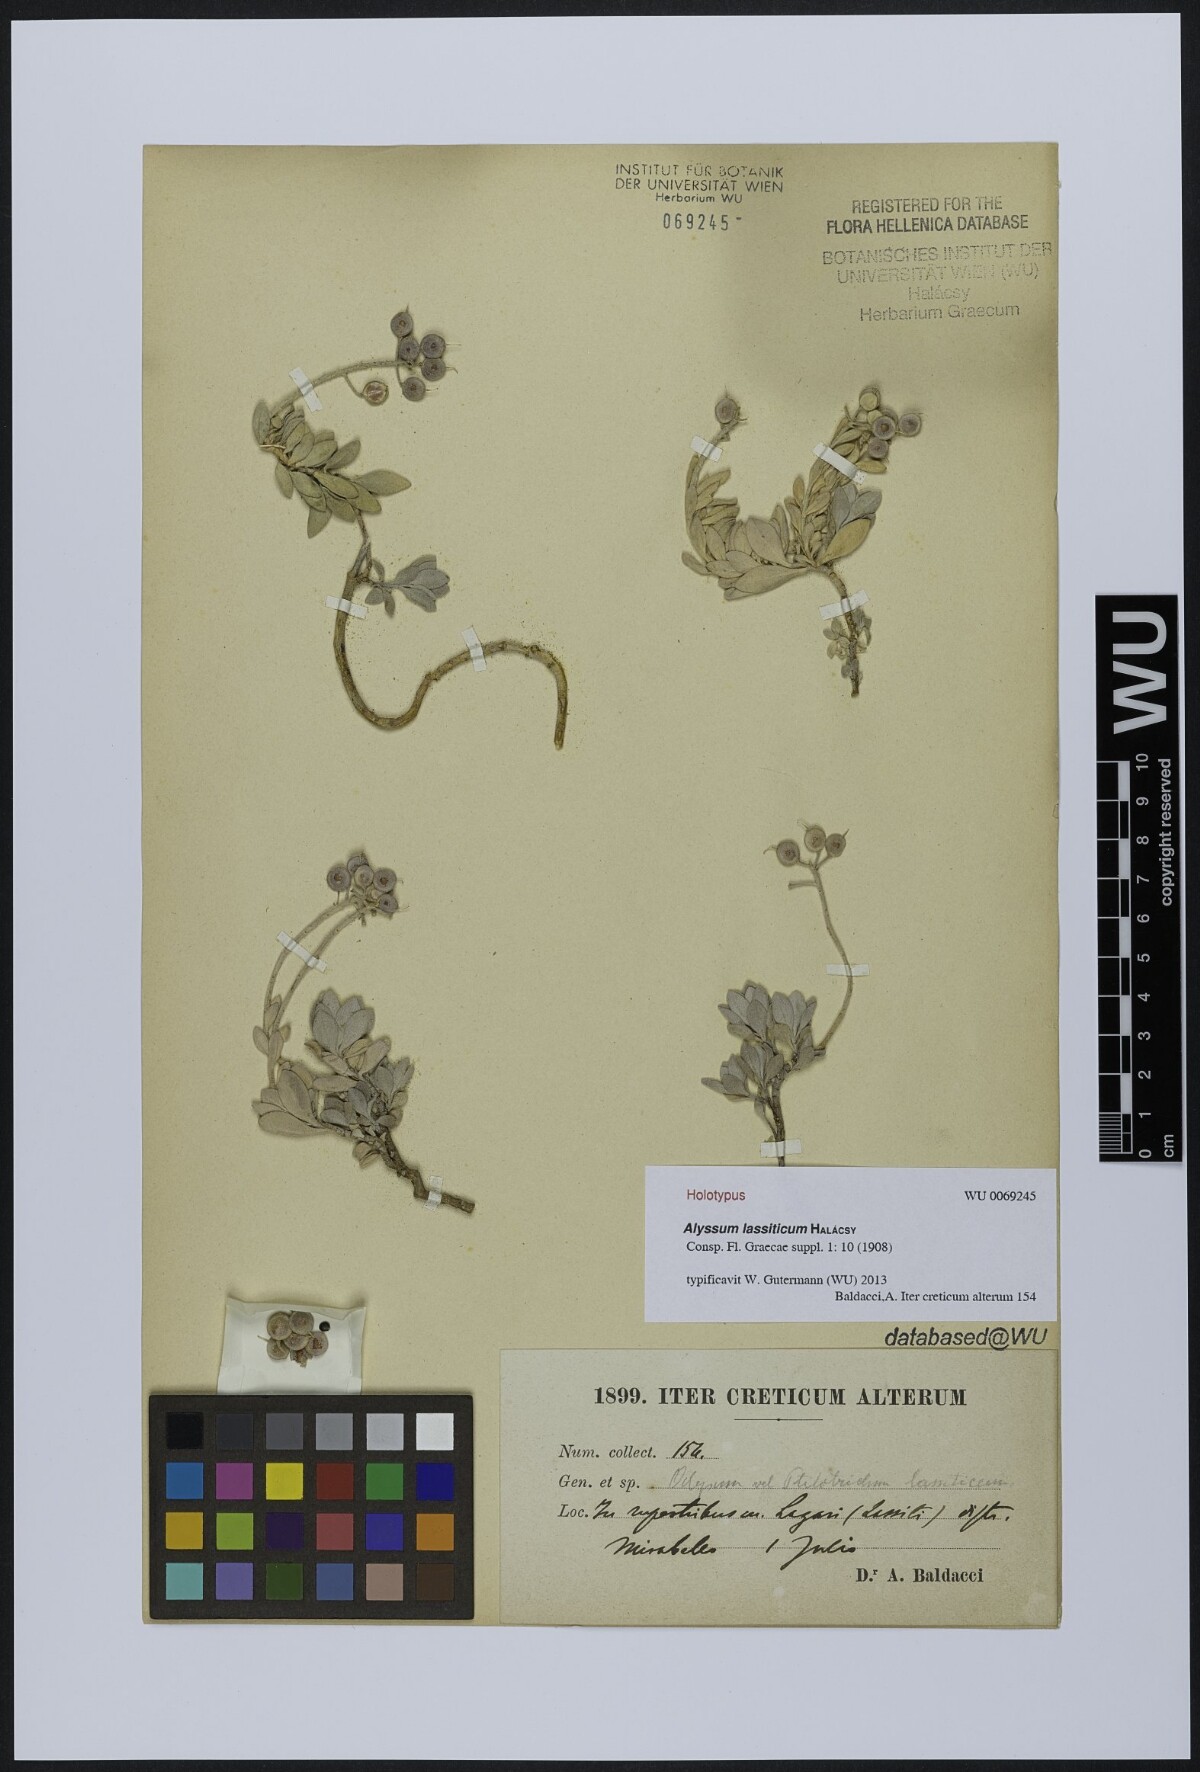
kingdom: Plantae
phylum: Tracheophyta
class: Magnoliopsida
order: Brassicales
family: Brassicaceae
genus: Alyssum
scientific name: Alyssum lassiticum
